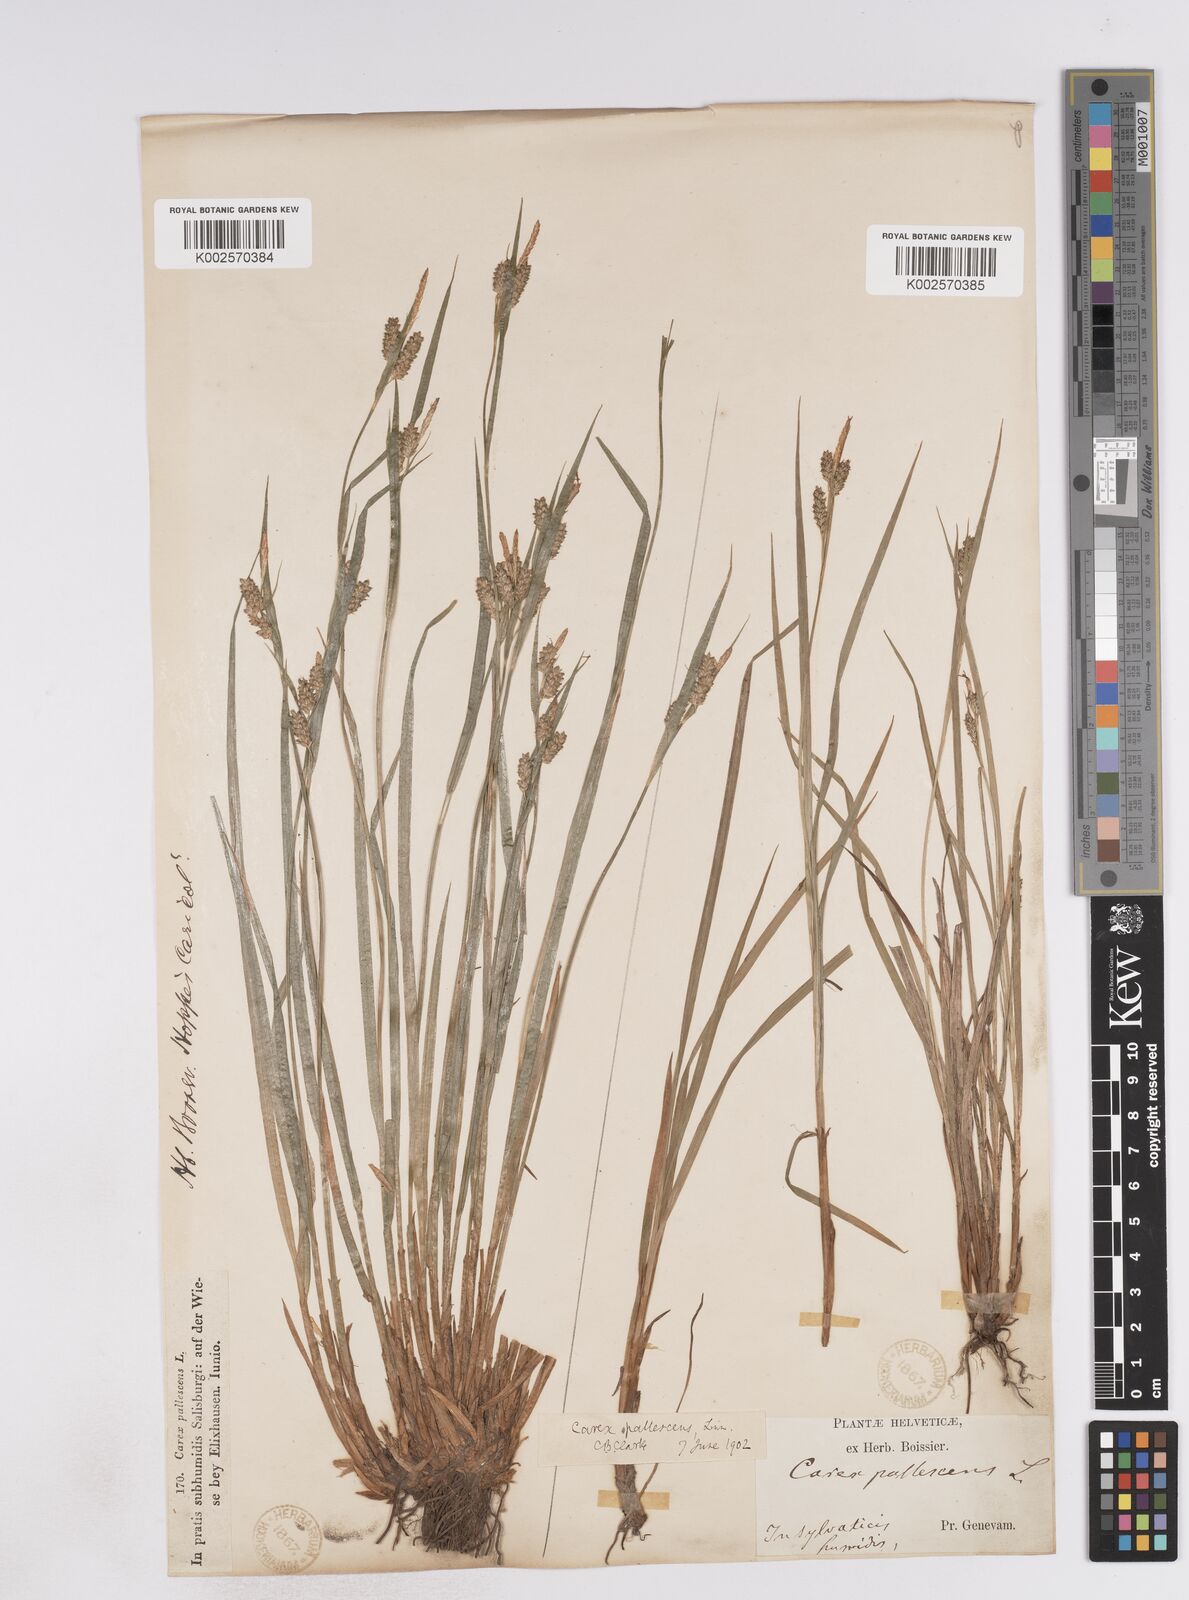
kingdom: Plantae
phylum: Tracheophyta
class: Liliopsida
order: Poales
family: Cyperaceae
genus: Carex
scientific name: Carex pallescens
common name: Pale sedge
